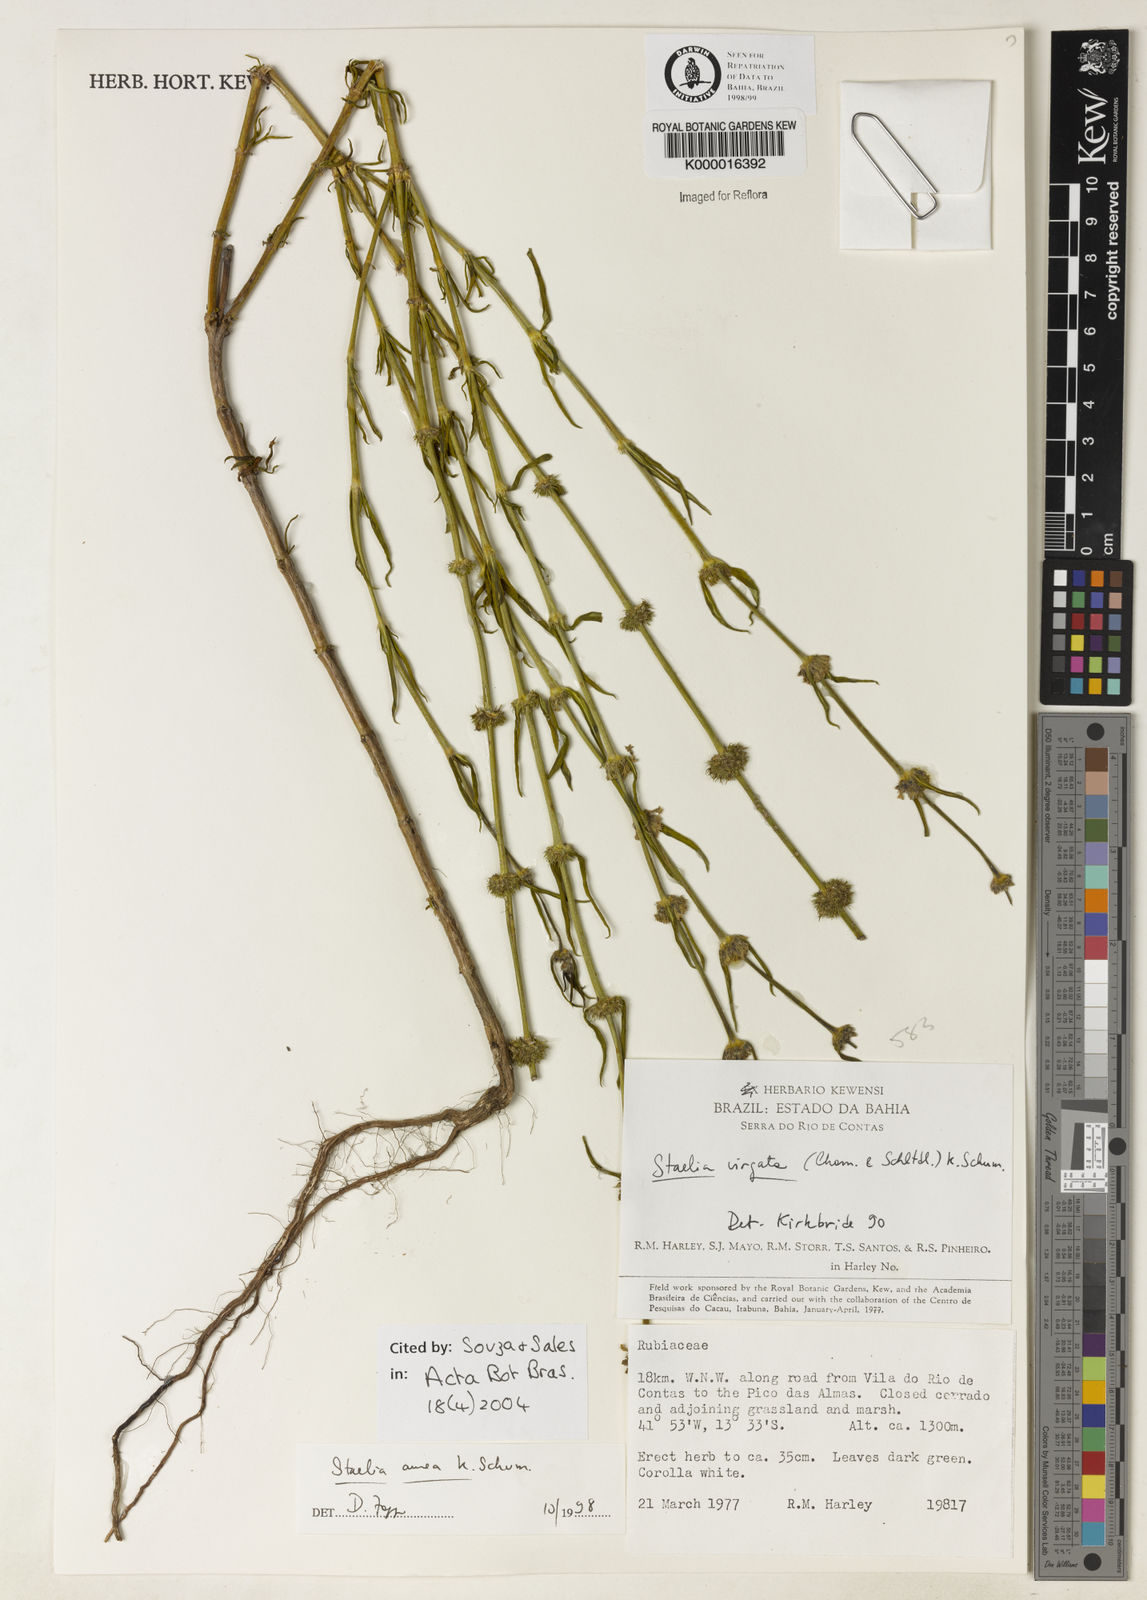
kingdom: Plantae
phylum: Tracheophyta
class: Magnoliopsida
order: Gentianales
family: Rubiaceae
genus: Staelia
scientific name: Staelia aurea
